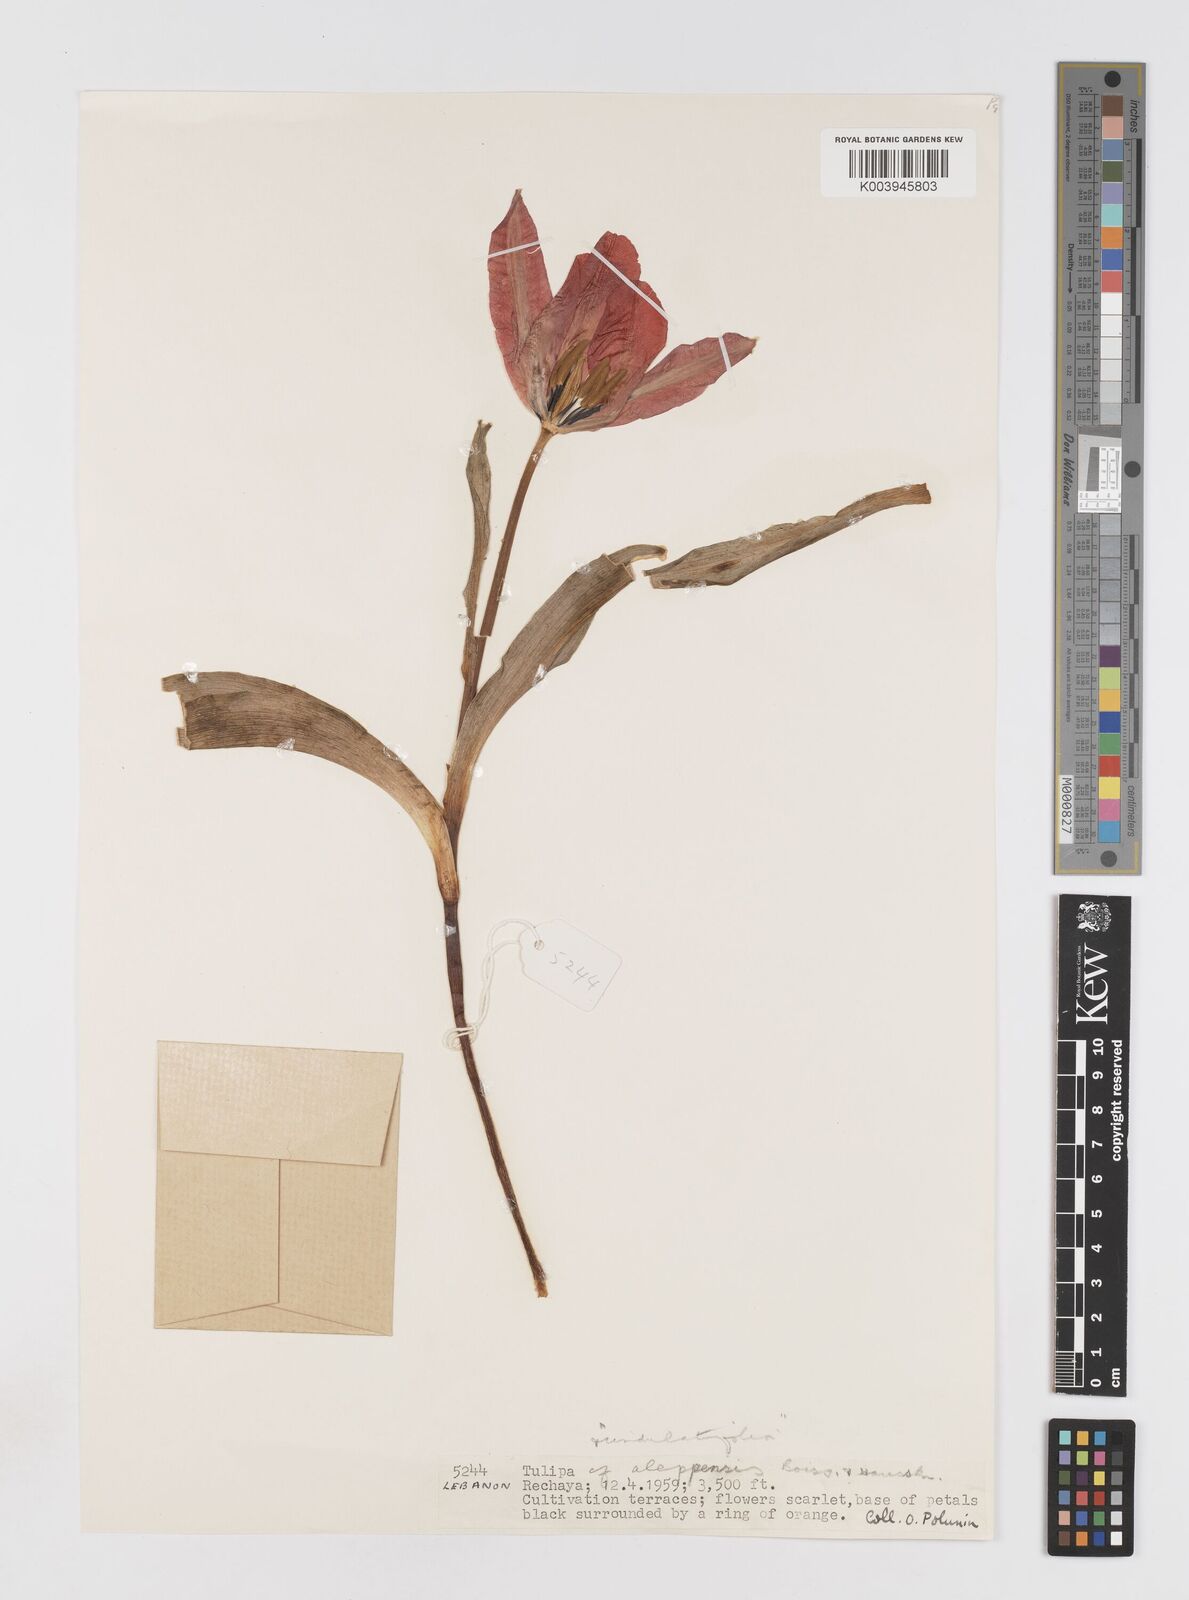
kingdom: Plantae
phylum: Tracheophyta
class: Liliopsida
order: Liliales
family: Liliaceae
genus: Tulipa
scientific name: Tulipa aleppensis
